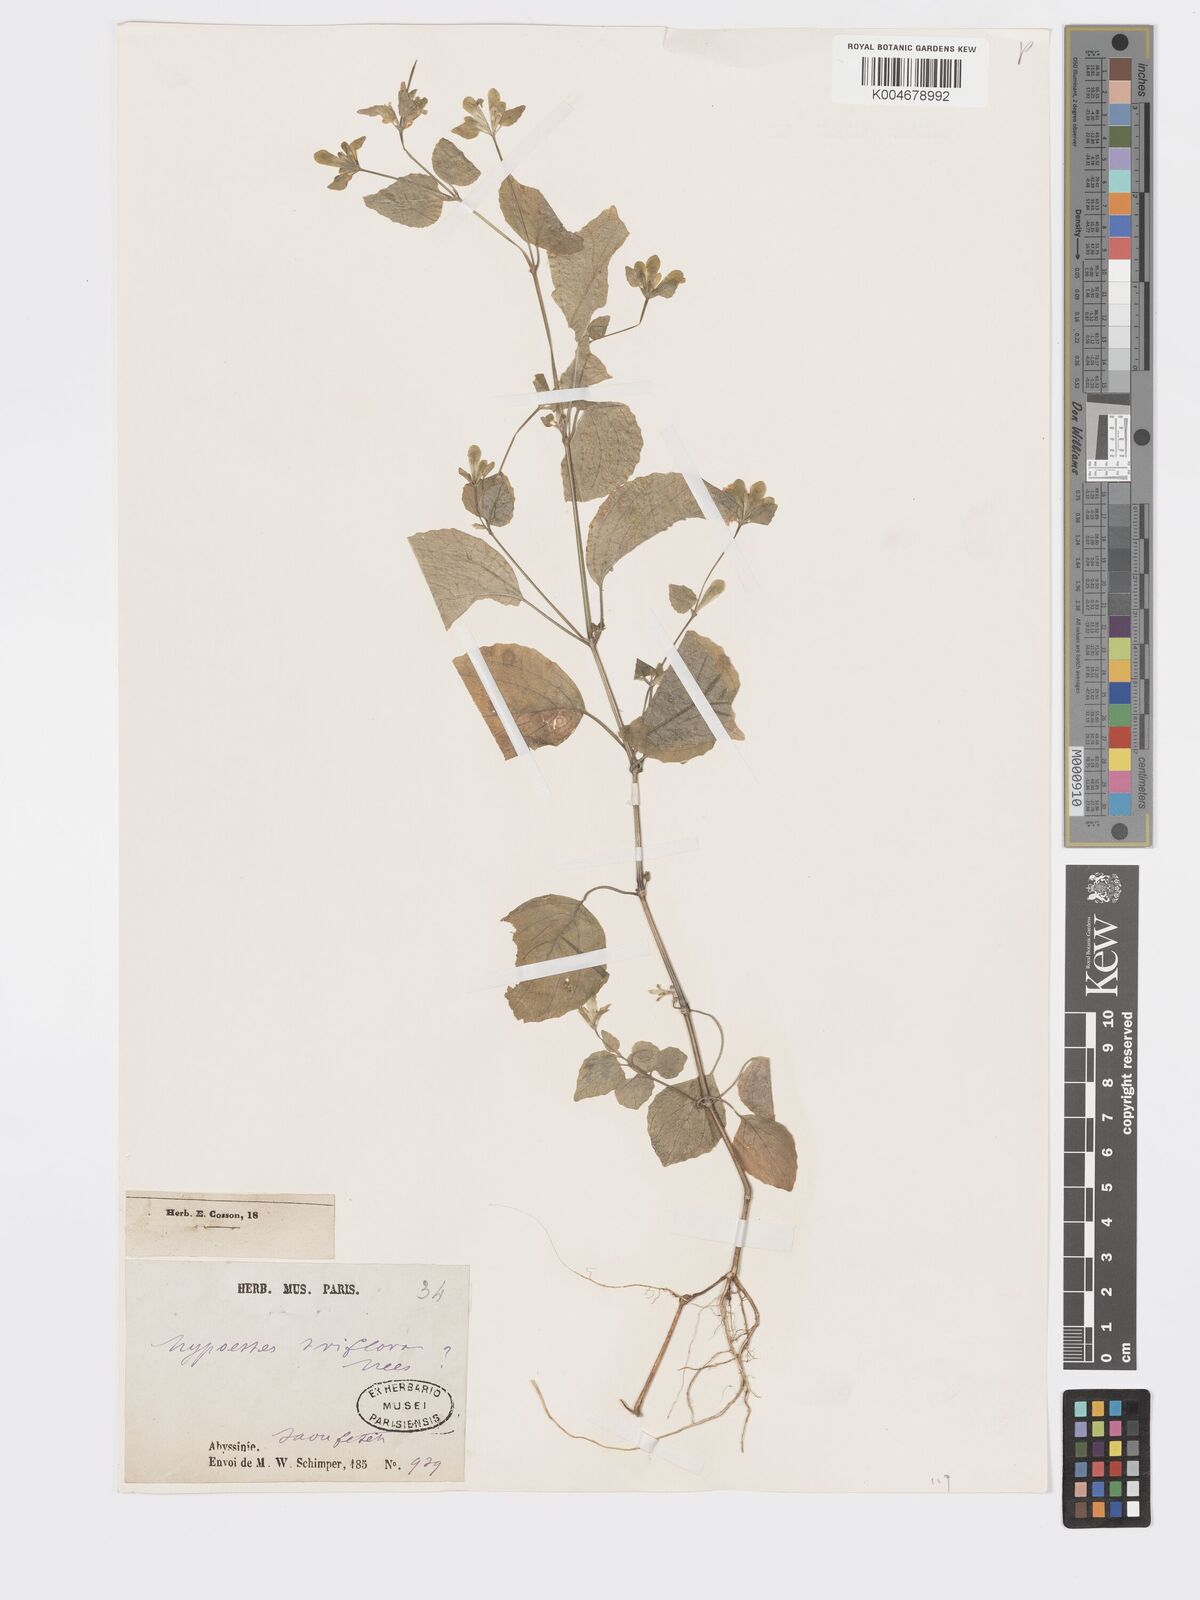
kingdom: Plantae
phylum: Tracheophyta
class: Magnoliopsida
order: Lamiales
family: Acanthaceae
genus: Hypoestes
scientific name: Hypoestes triflora
